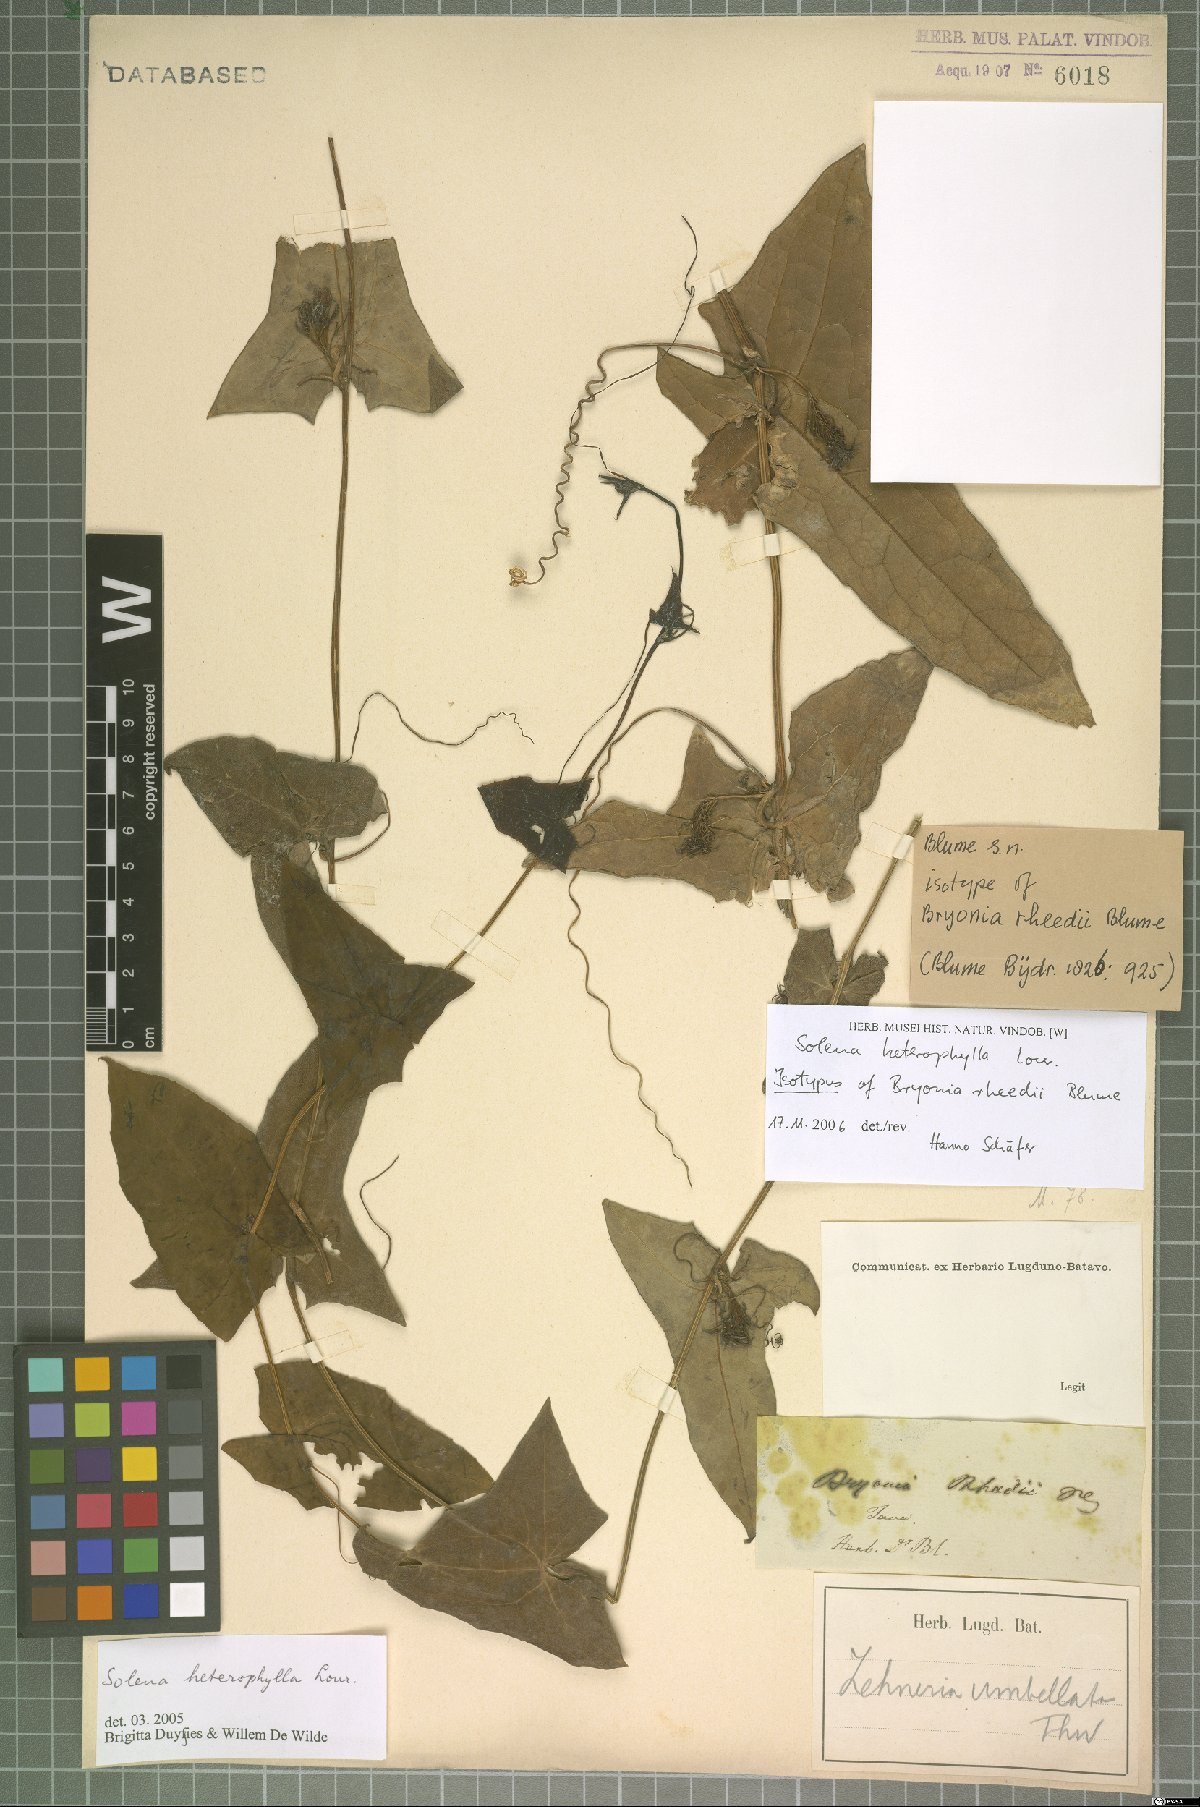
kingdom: Plantae
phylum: Tracheophyta
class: Magnoliopsida
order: Cucurbitales
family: Cucurbitaceae
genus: Solena
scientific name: Solena heterophylla
